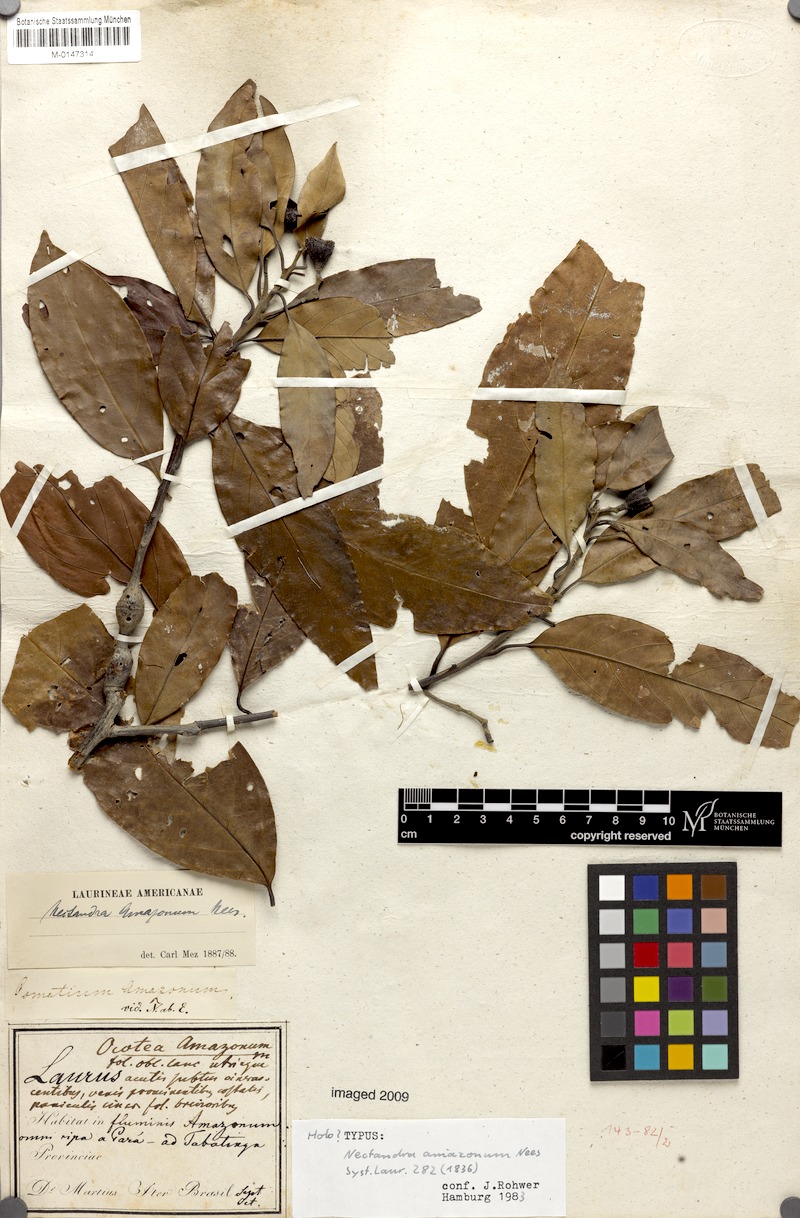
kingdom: Plantae
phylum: Tracheophyta
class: Magnoliopsida
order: Laurales
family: Lauraceae
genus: Nectandra
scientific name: Nectandra amazonum
